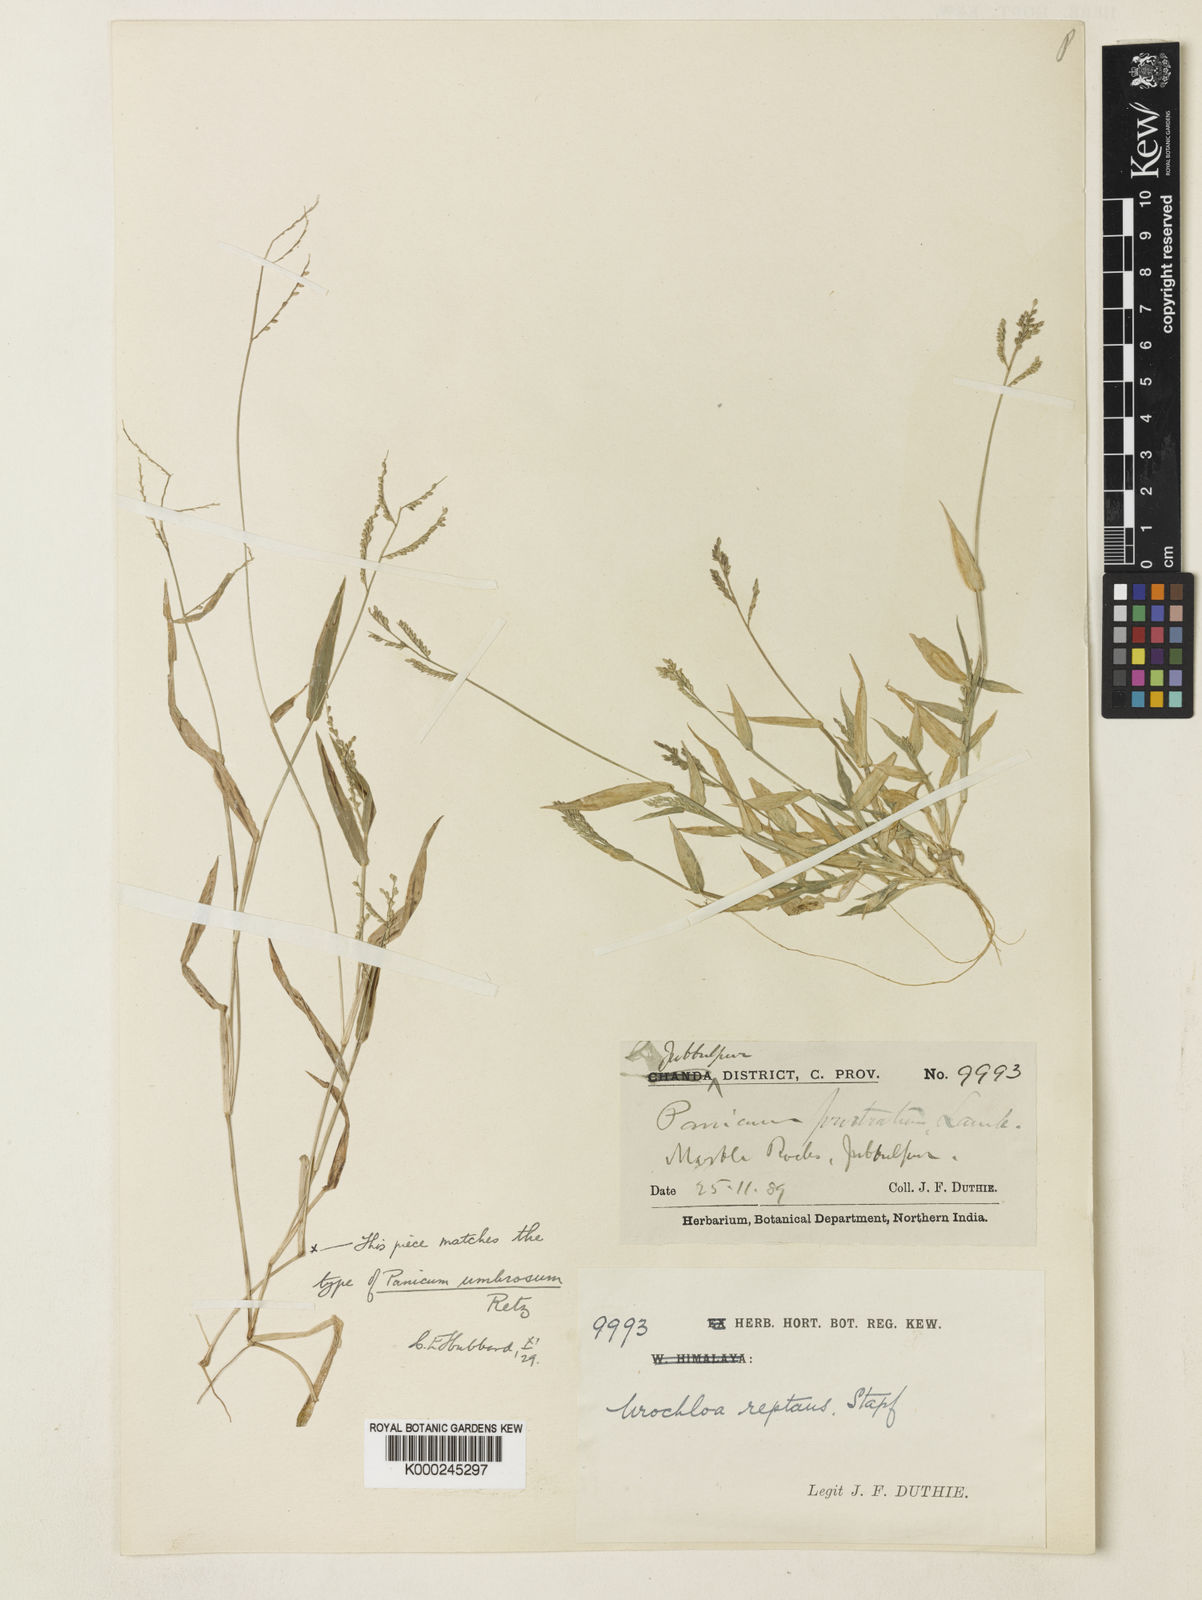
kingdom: Plantae
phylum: Tracheophyta
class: Liliopsida
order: Poales
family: Poaceae
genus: Urochloa
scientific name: Urochloa reptans
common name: Sprawling signalgrass
